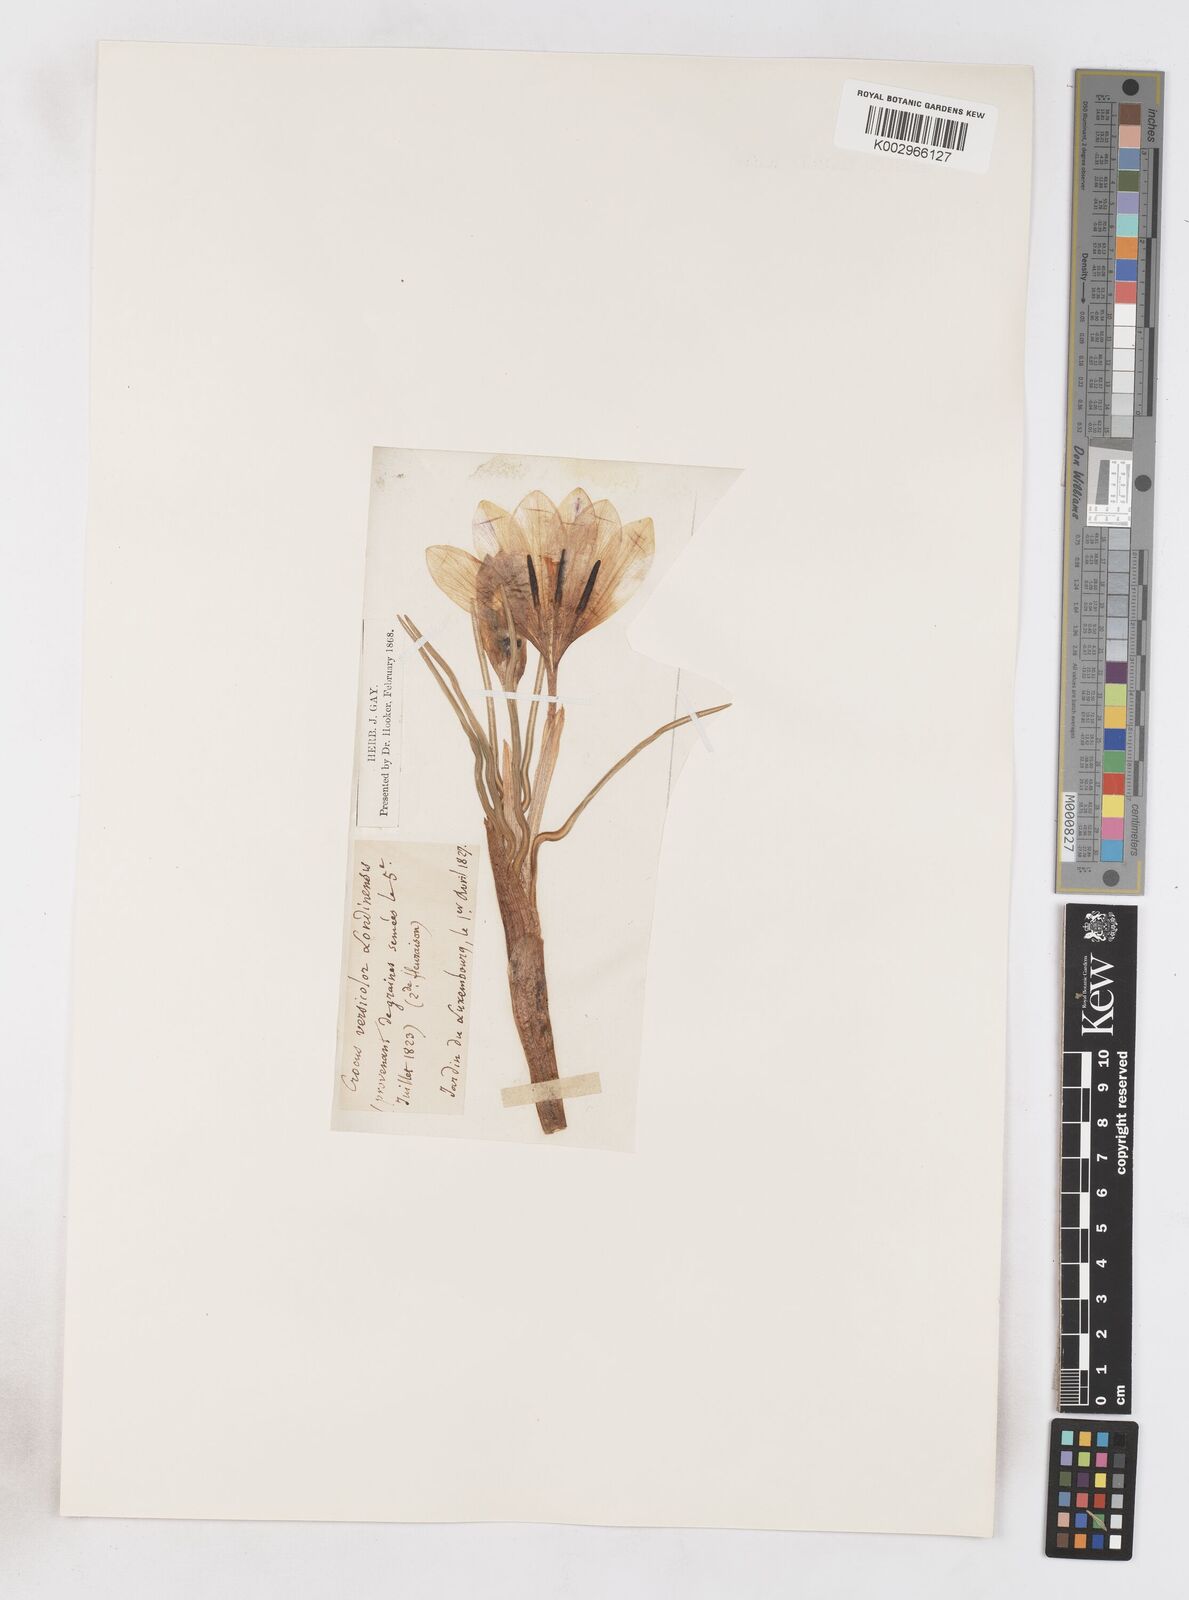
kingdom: Plantae
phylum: Tracheophyta
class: Liliopsida
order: Asparagales
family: Iridaceae
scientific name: Iridaceae
